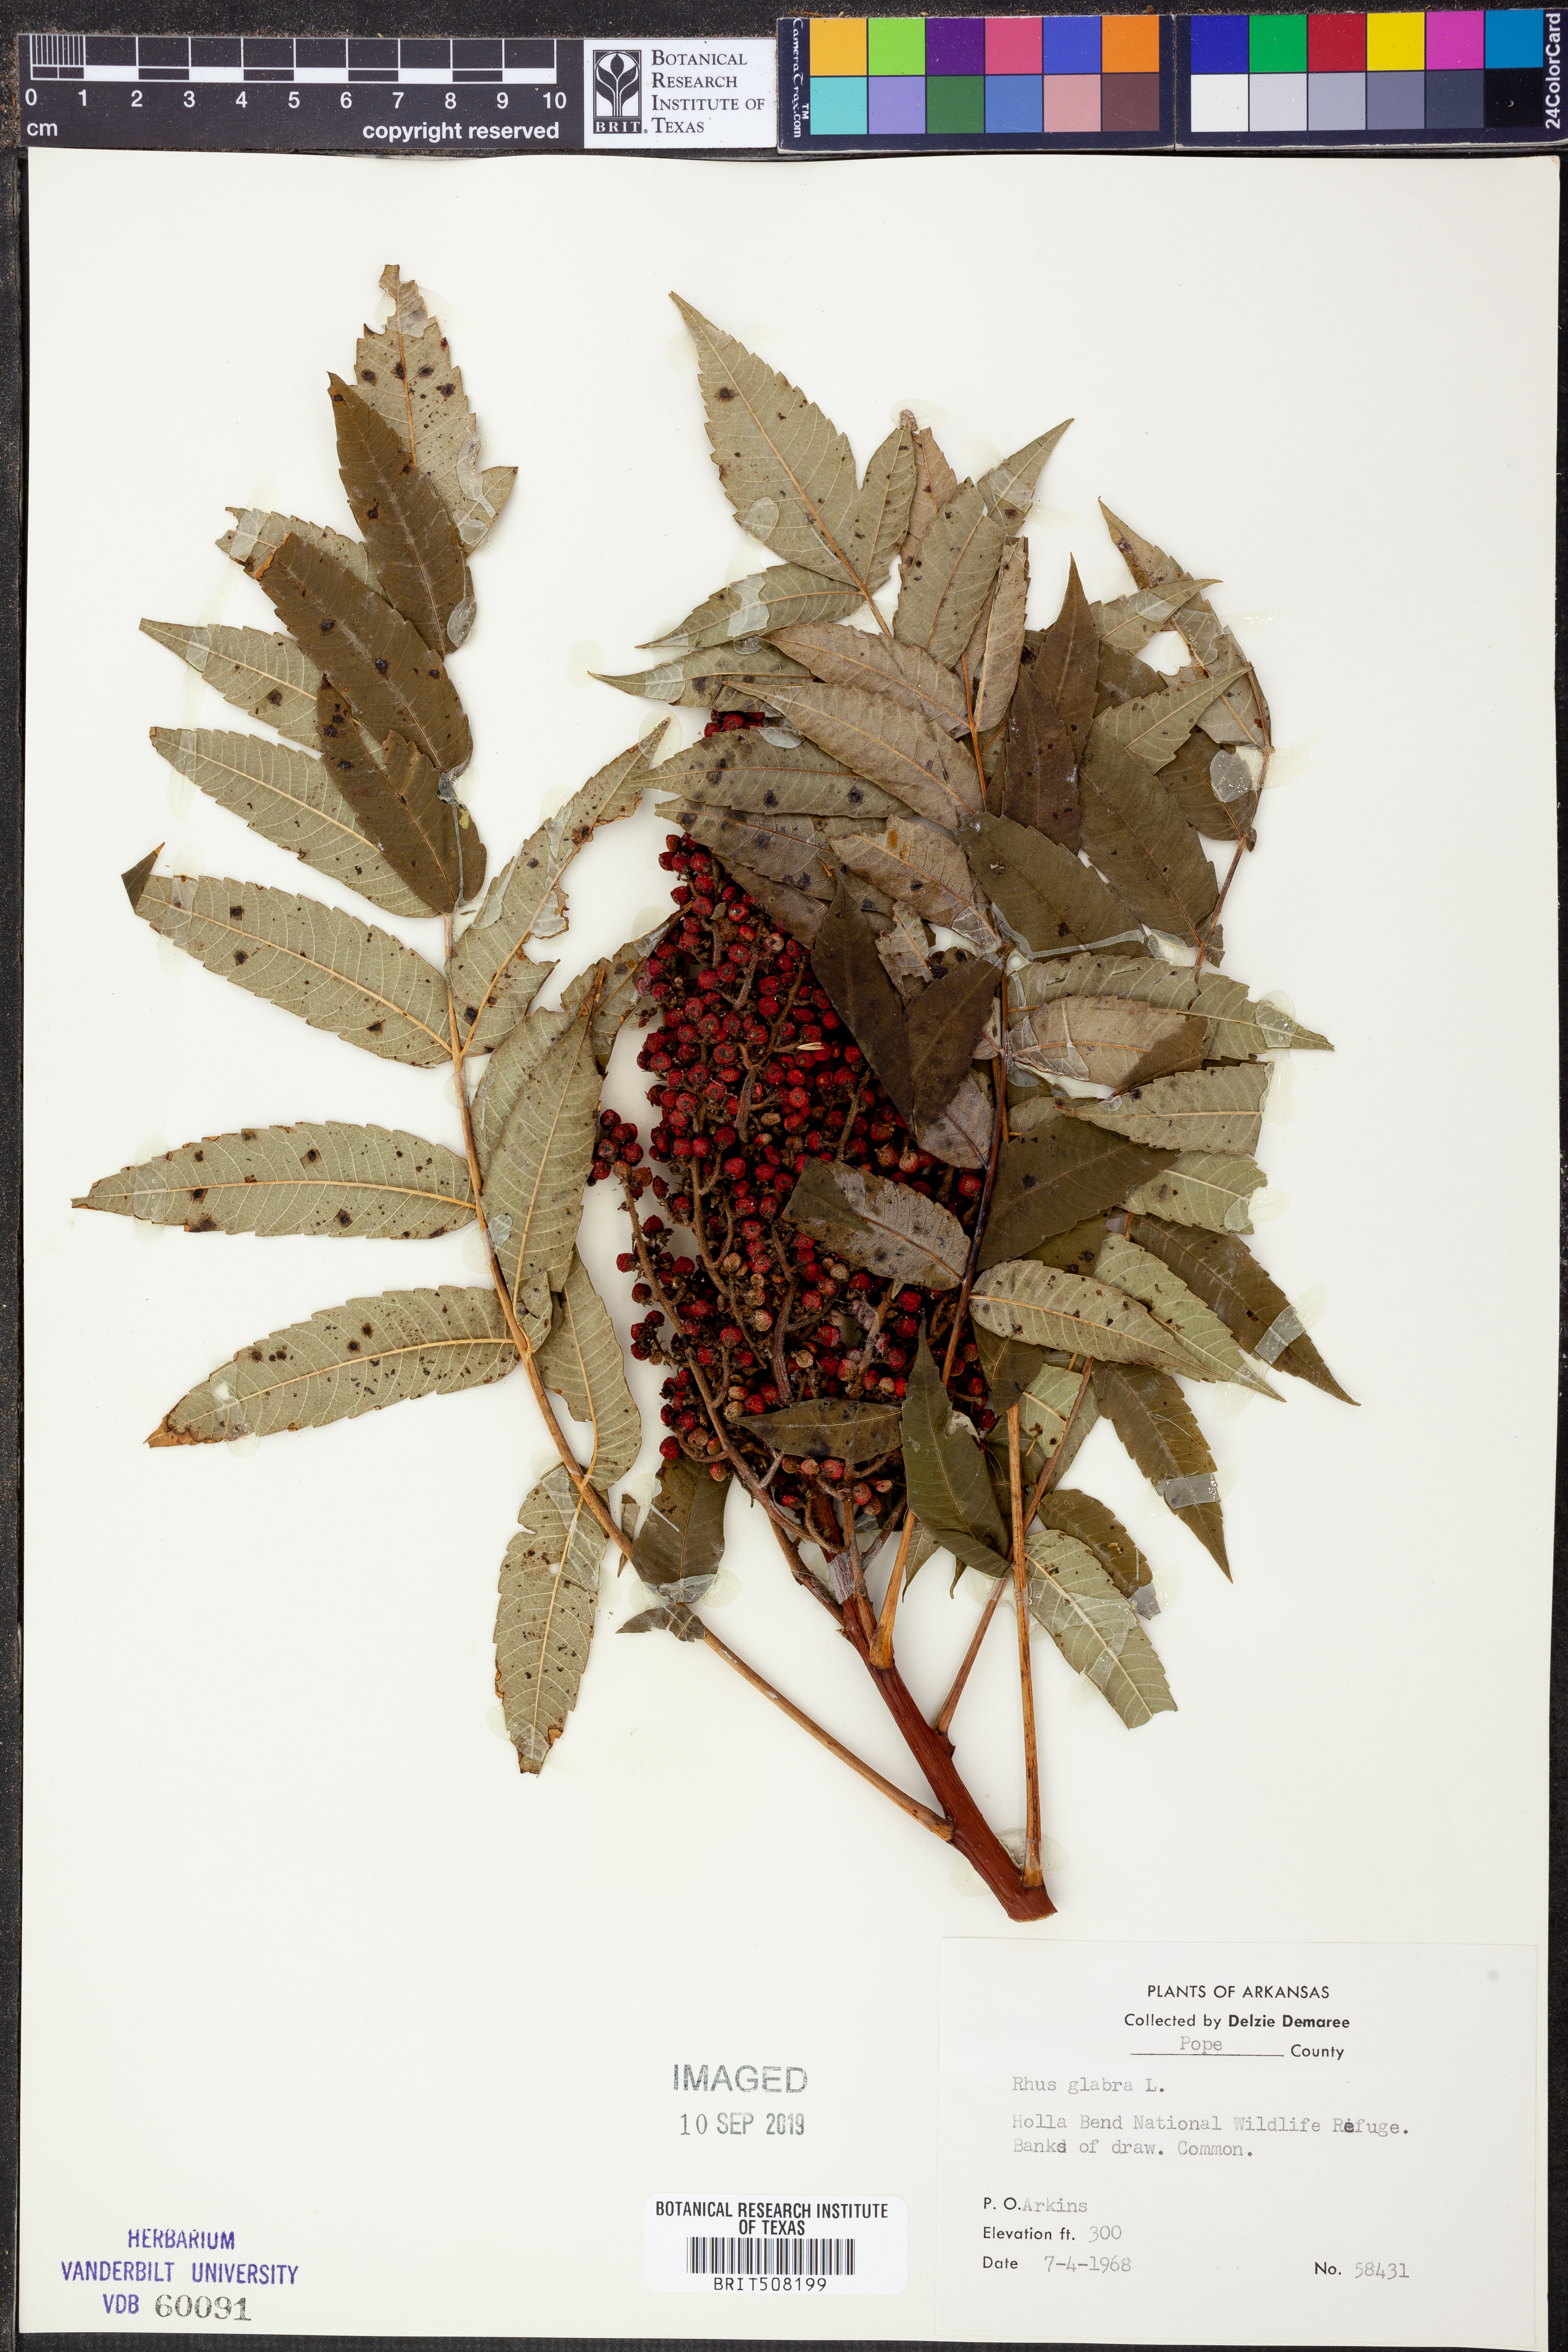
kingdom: Plantae
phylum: Tracheophyta
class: Magnoliopsida
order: Sapindales
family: Anacardiaceae
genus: Rhus
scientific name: Rhus glabra
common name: Scarlet sumac
